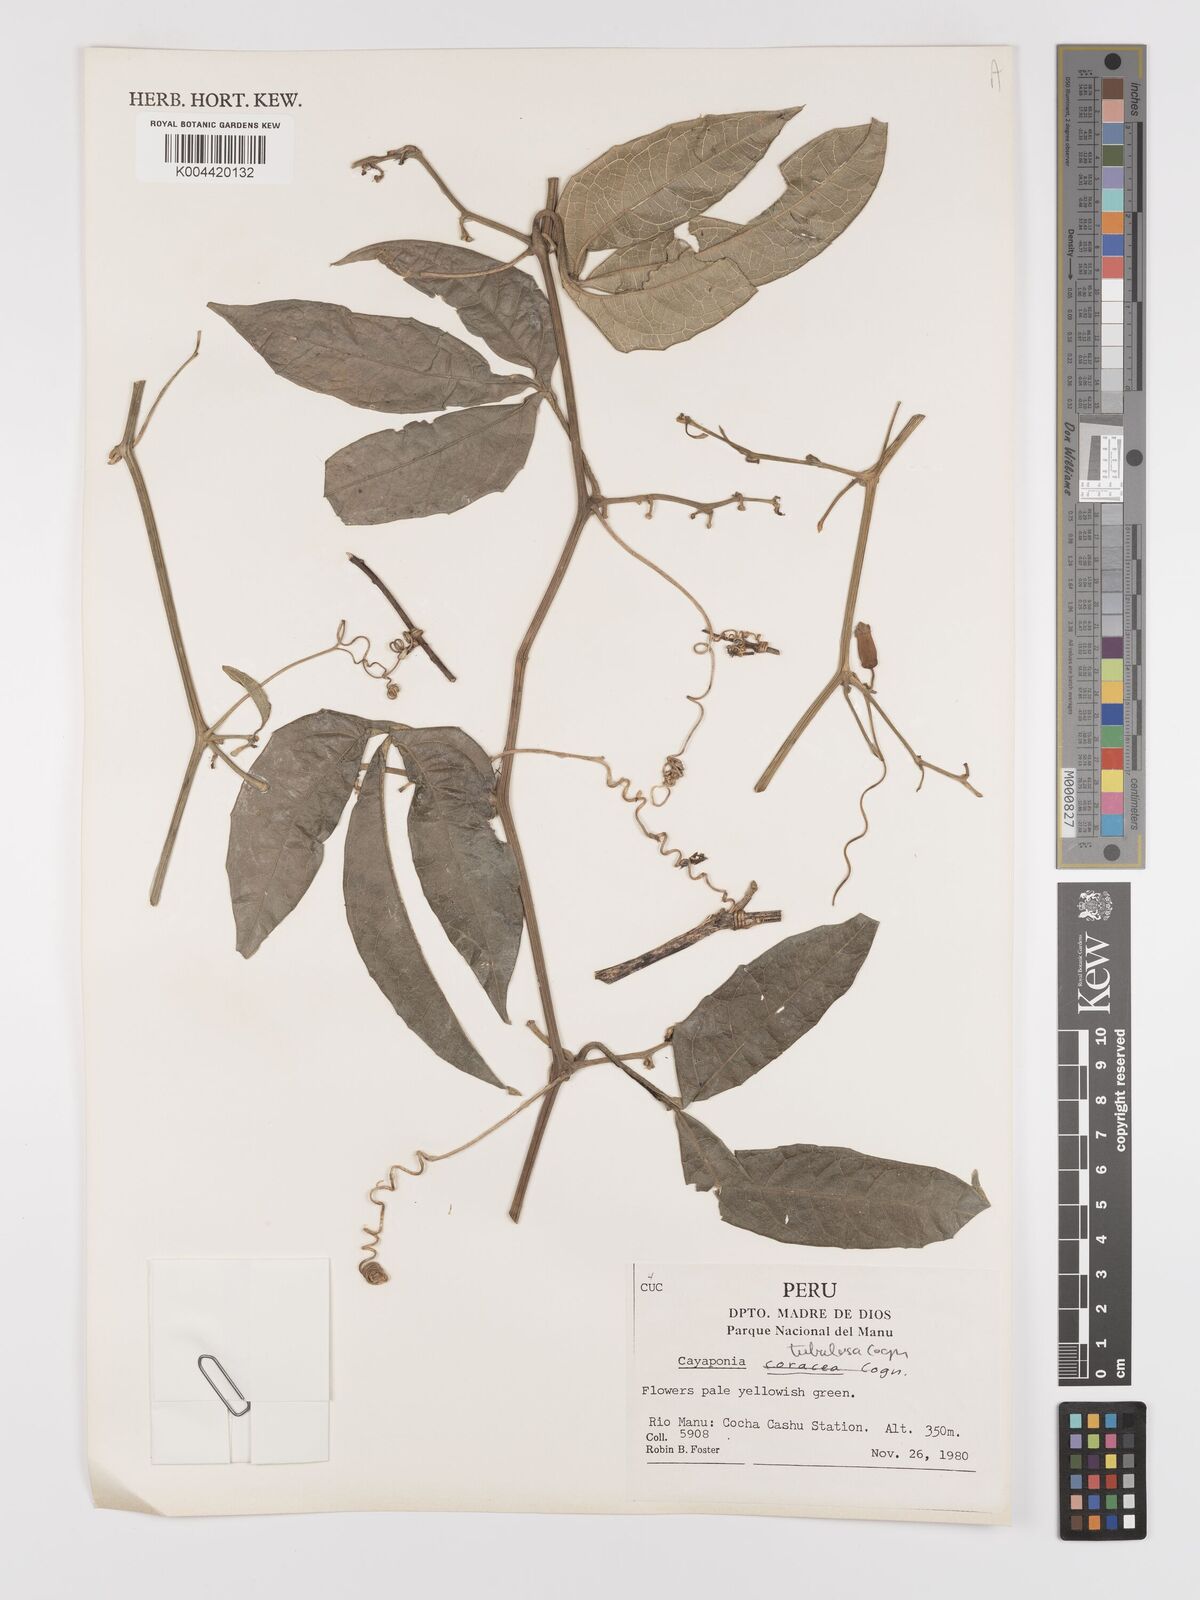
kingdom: Plantae
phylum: Tracheophyta
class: Magnoliopsida
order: Cucurbitales
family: Cucurbitaceae
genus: Cayaponia
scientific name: Cayaponia tubulosa
